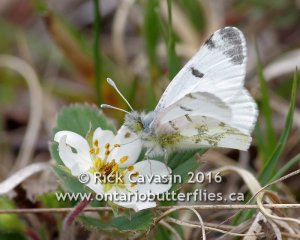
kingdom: Animalia
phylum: Arthropoda
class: Insecta
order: Lepidoptera
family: Pieridae
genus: Euchloe
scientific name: Euchloe olympia
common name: Olympia Marble
